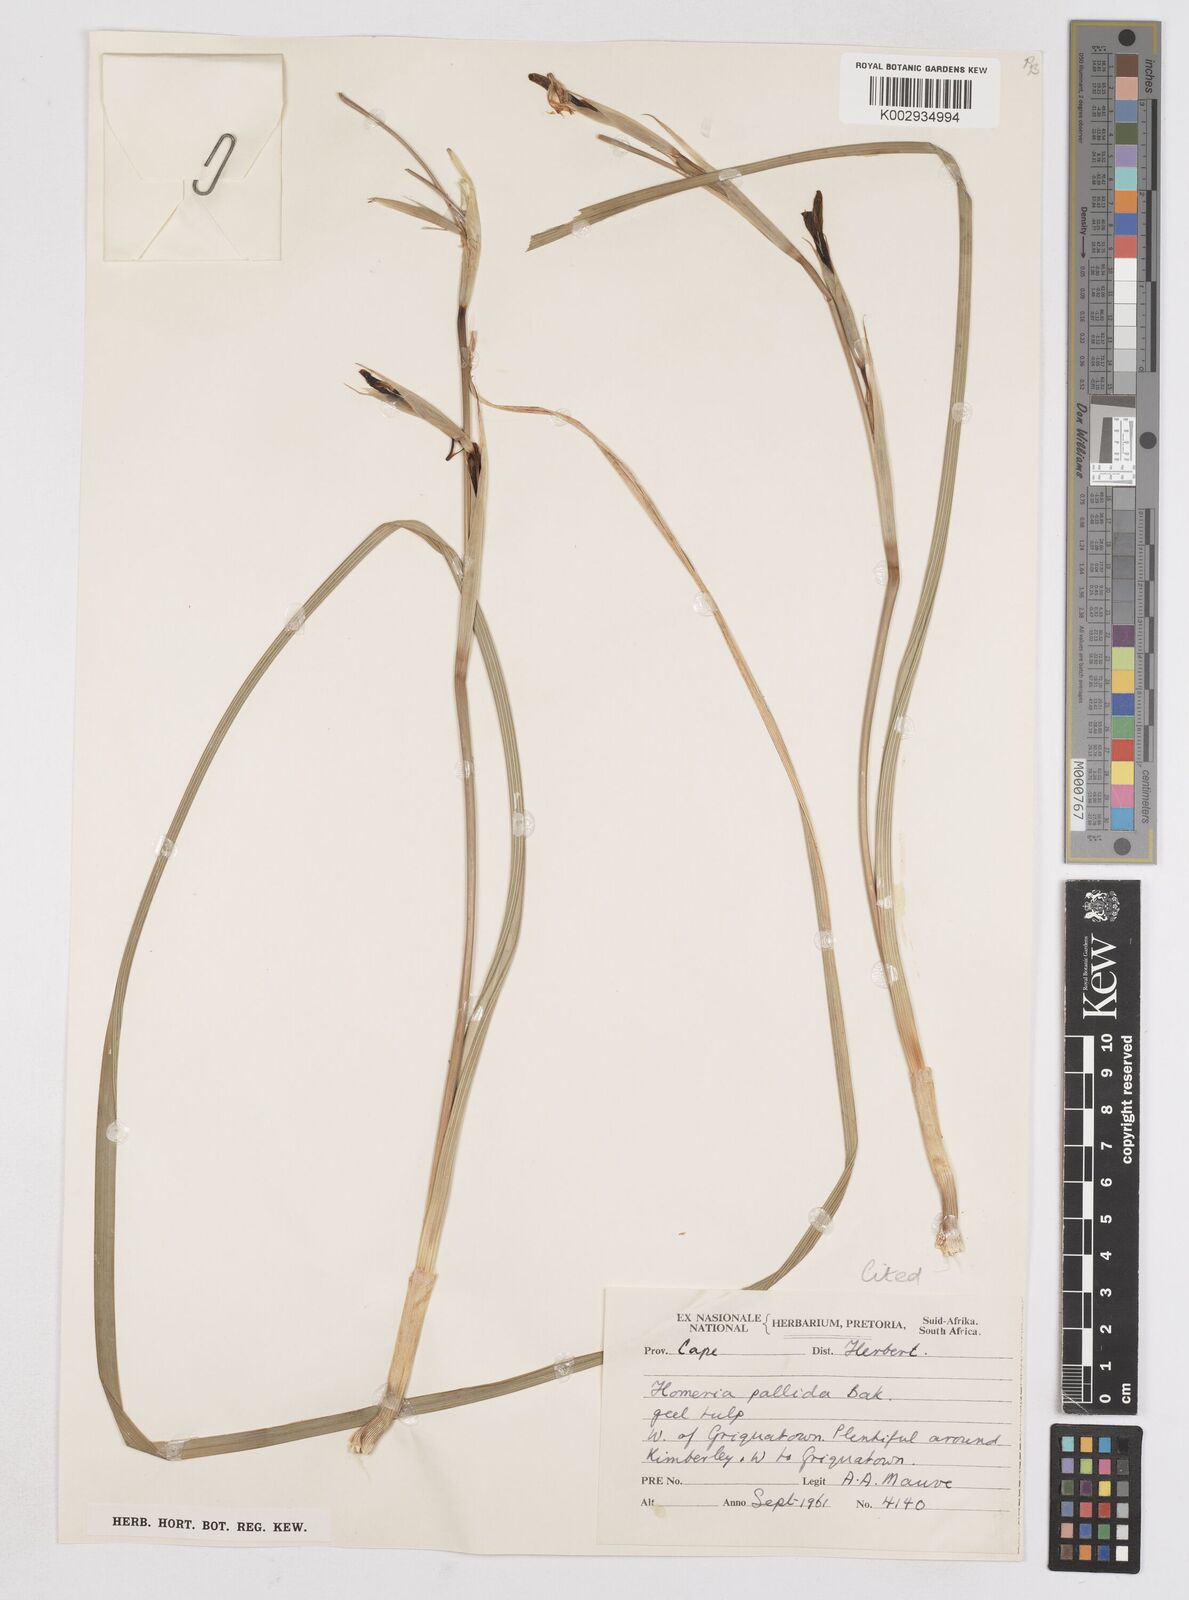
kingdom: Plantae
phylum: Tracheophyta
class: Liliopsida
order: Asparagales
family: Iridaceae
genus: Moraea
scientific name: Moraea pallida
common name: Yellow tulp
